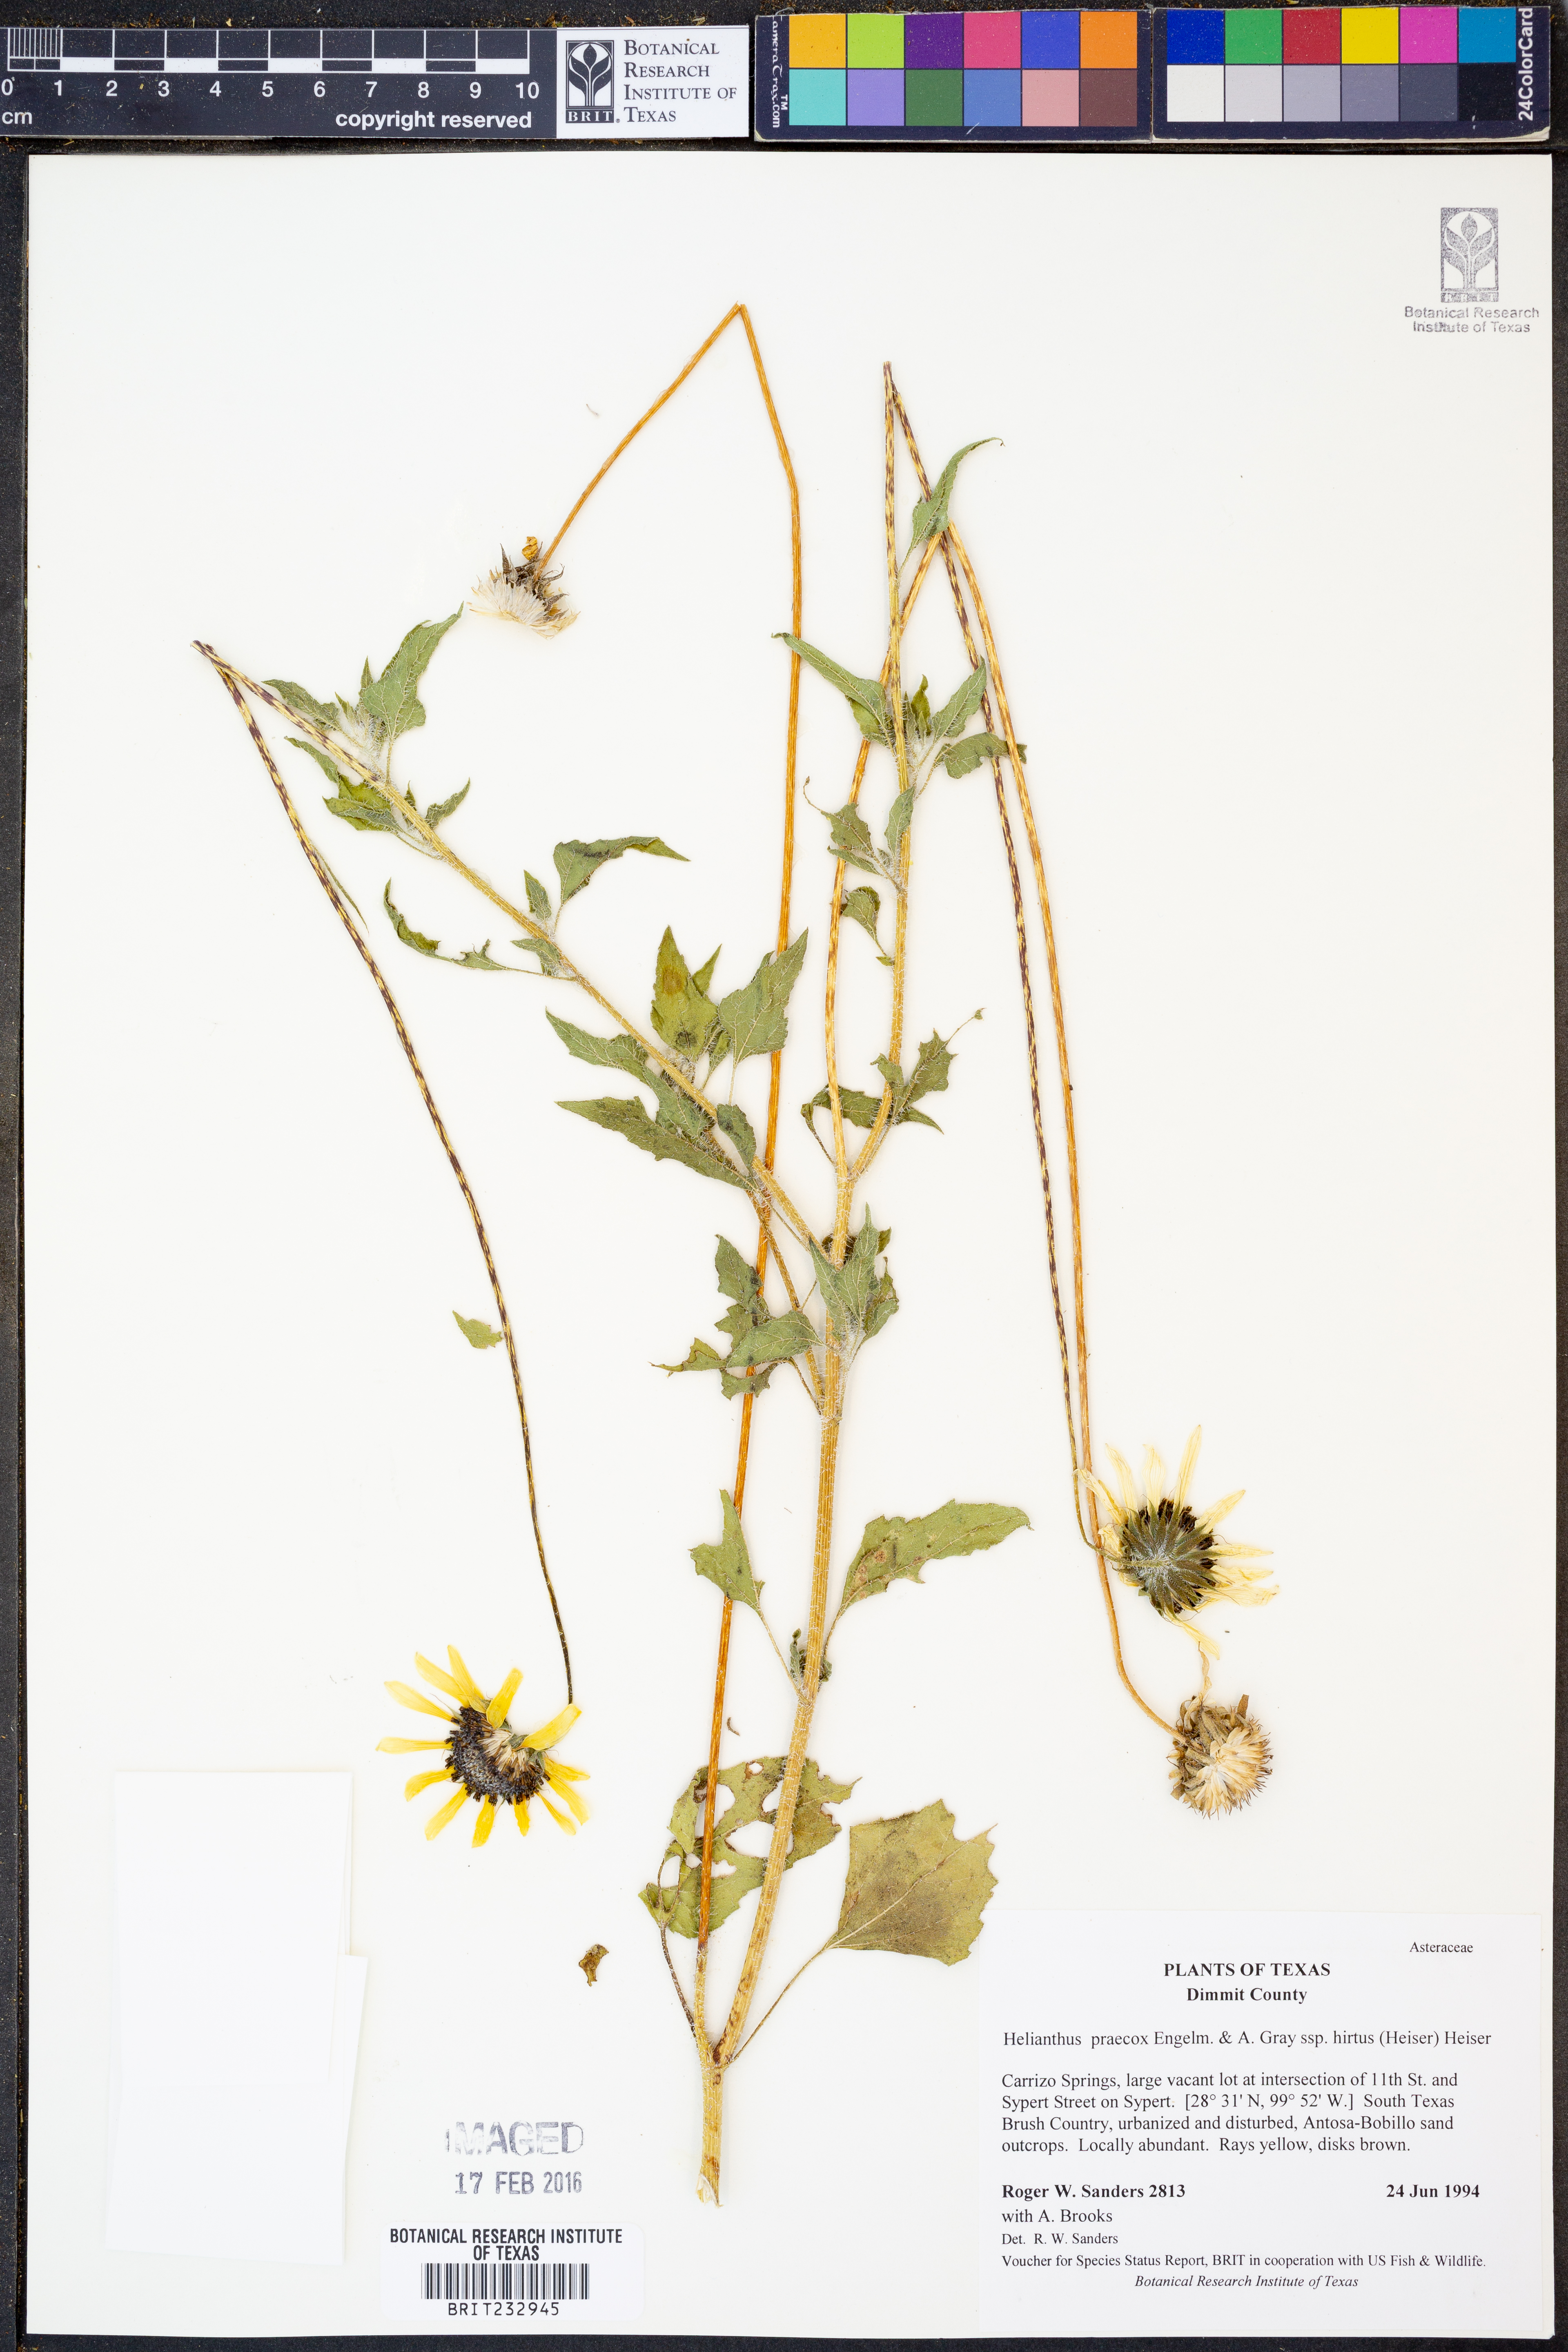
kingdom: Plantae
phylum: Tracheophyta
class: Magnoliopsida
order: Asterales
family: Asteraceae
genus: Helianthus
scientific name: Helianthus praecox
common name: Texas sunflower
